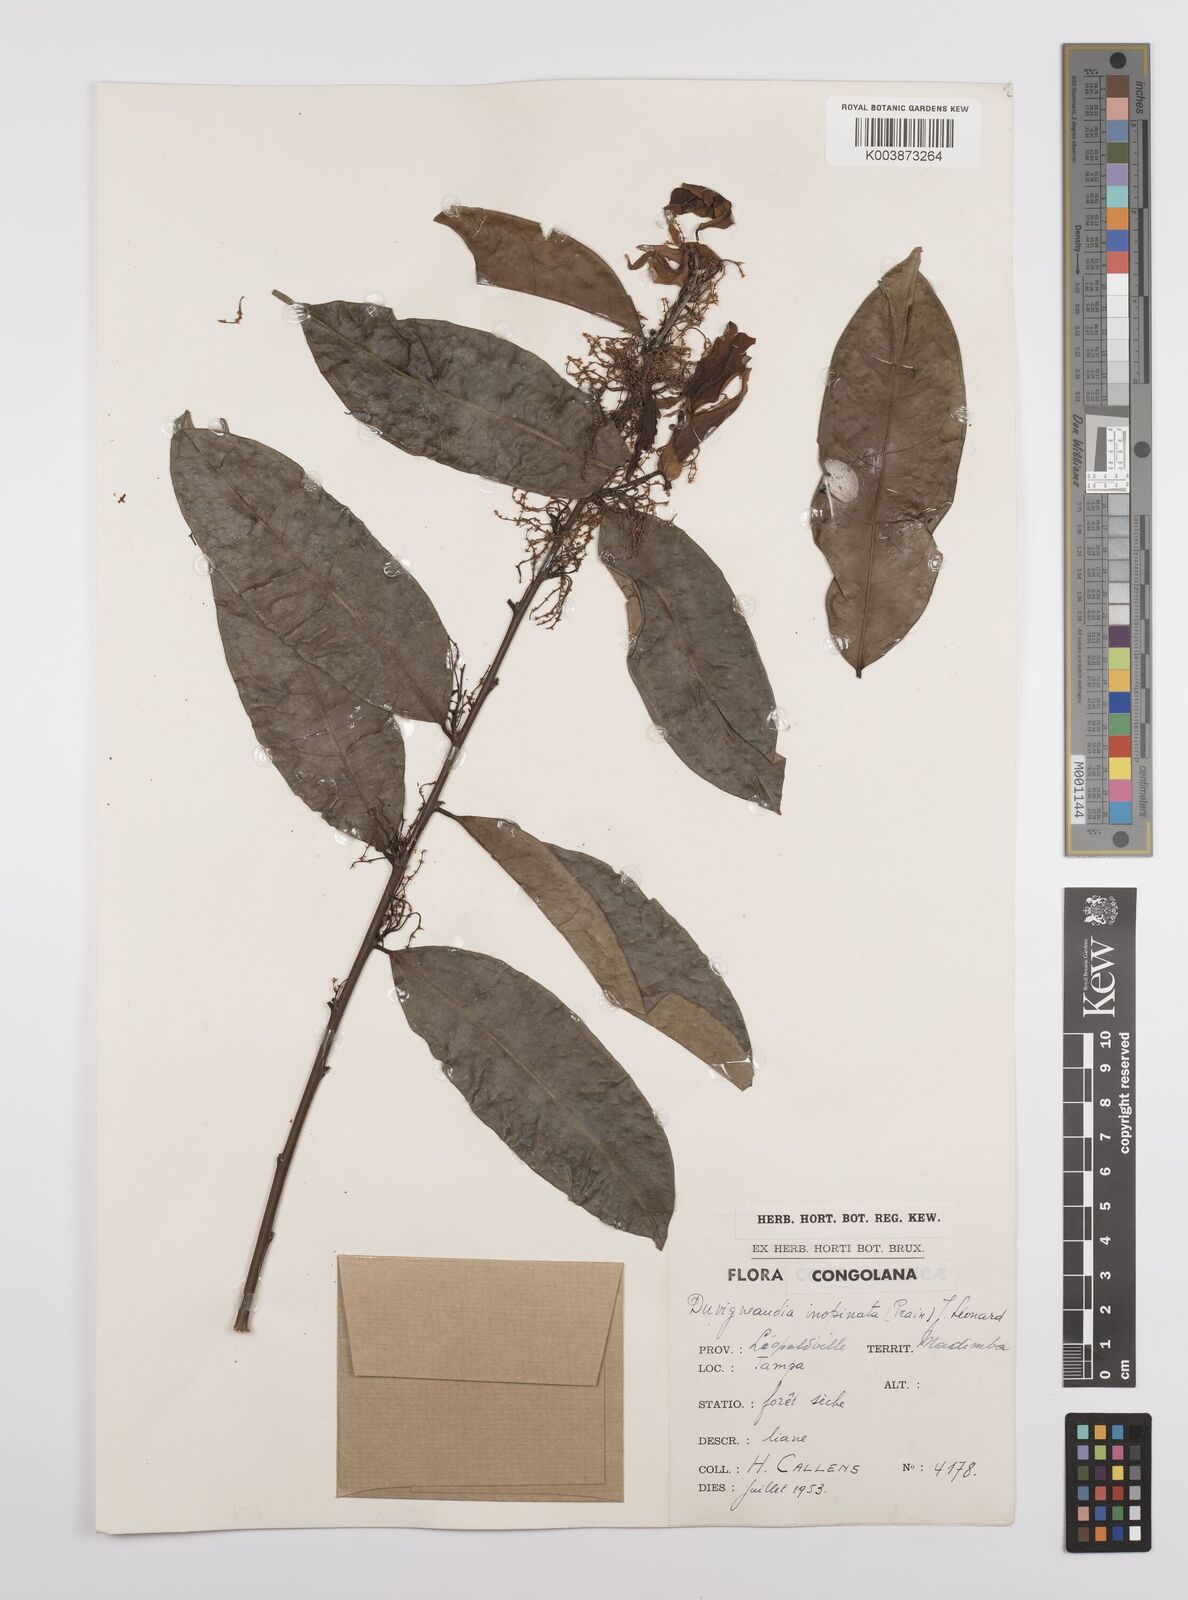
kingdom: Plantae
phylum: Tracheophyta
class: Magnoliopsida
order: Malpighiales
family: Euphorbiaceae
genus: Gymnanthes
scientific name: Gymnanthes
